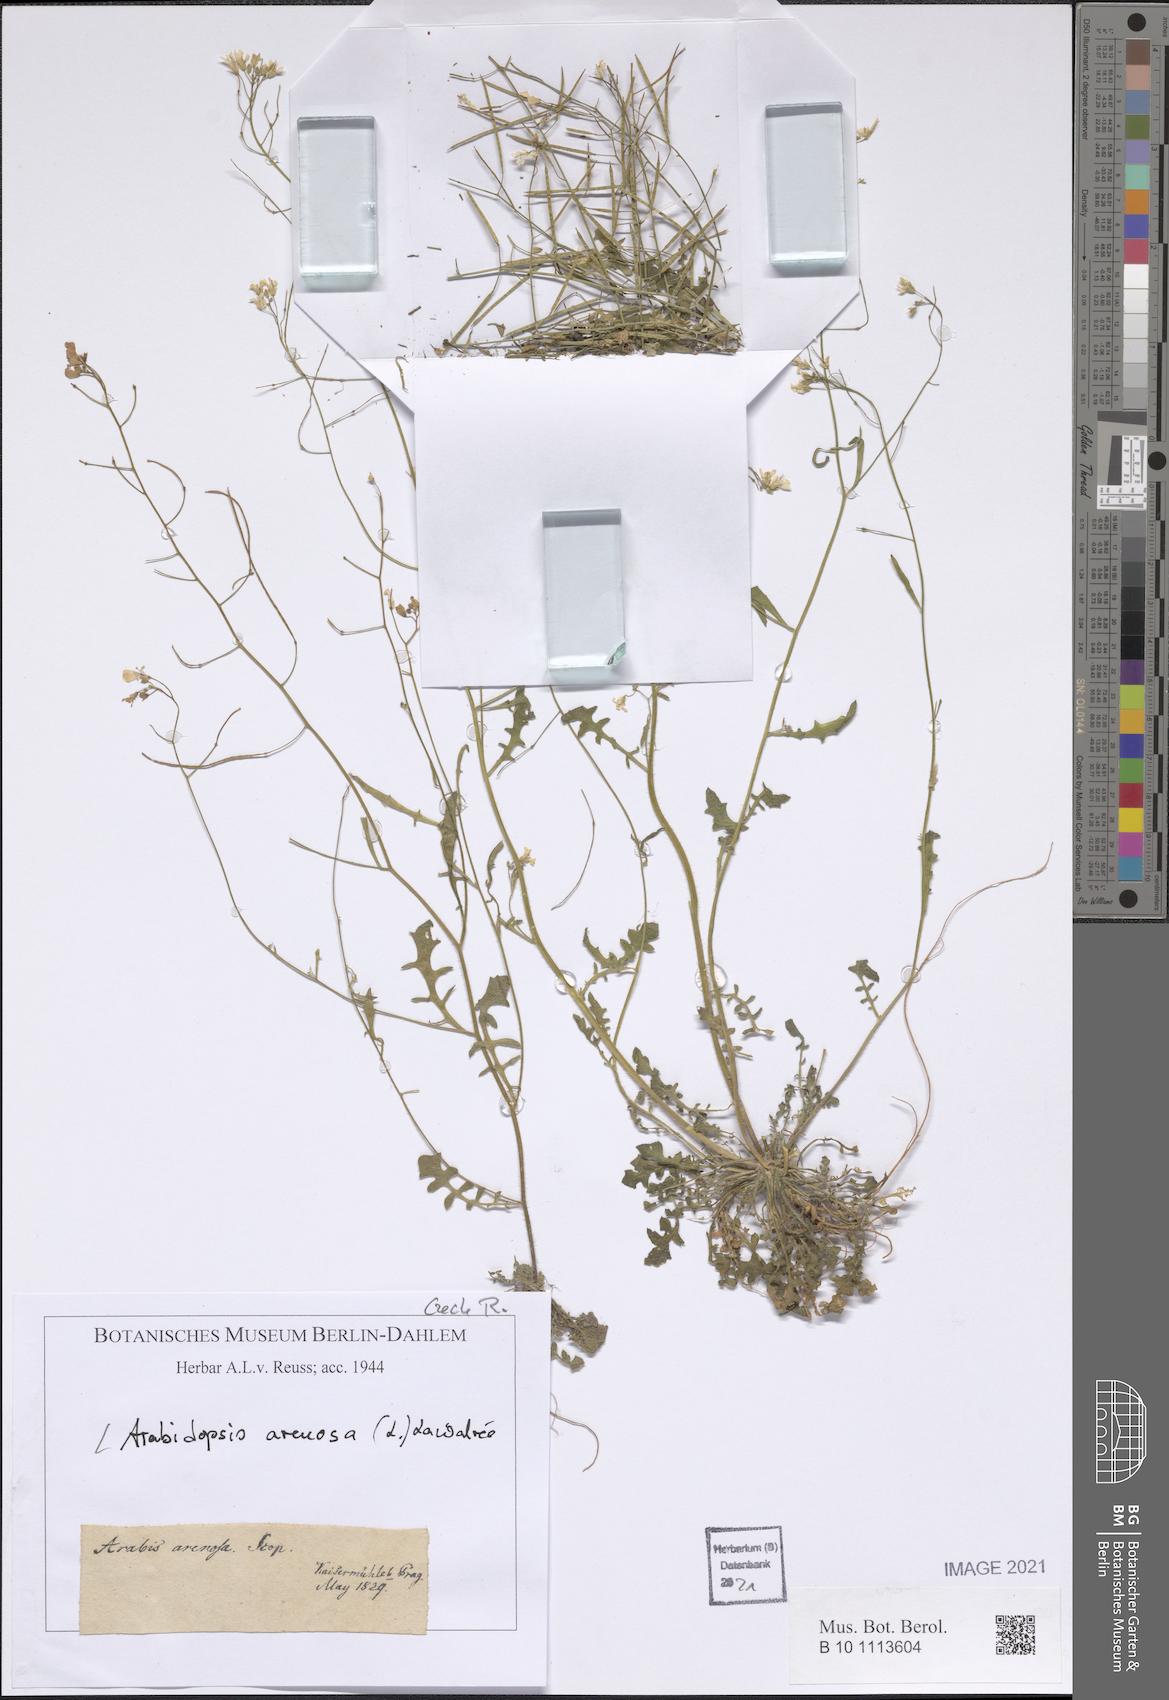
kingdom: Plantae
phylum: Tracheophyta
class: Magnoliopsida
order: Brassicales
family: Brassicaceae
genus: Arabidopsis
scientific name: Arabidopsis arenosa
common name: Sand rock-cress
